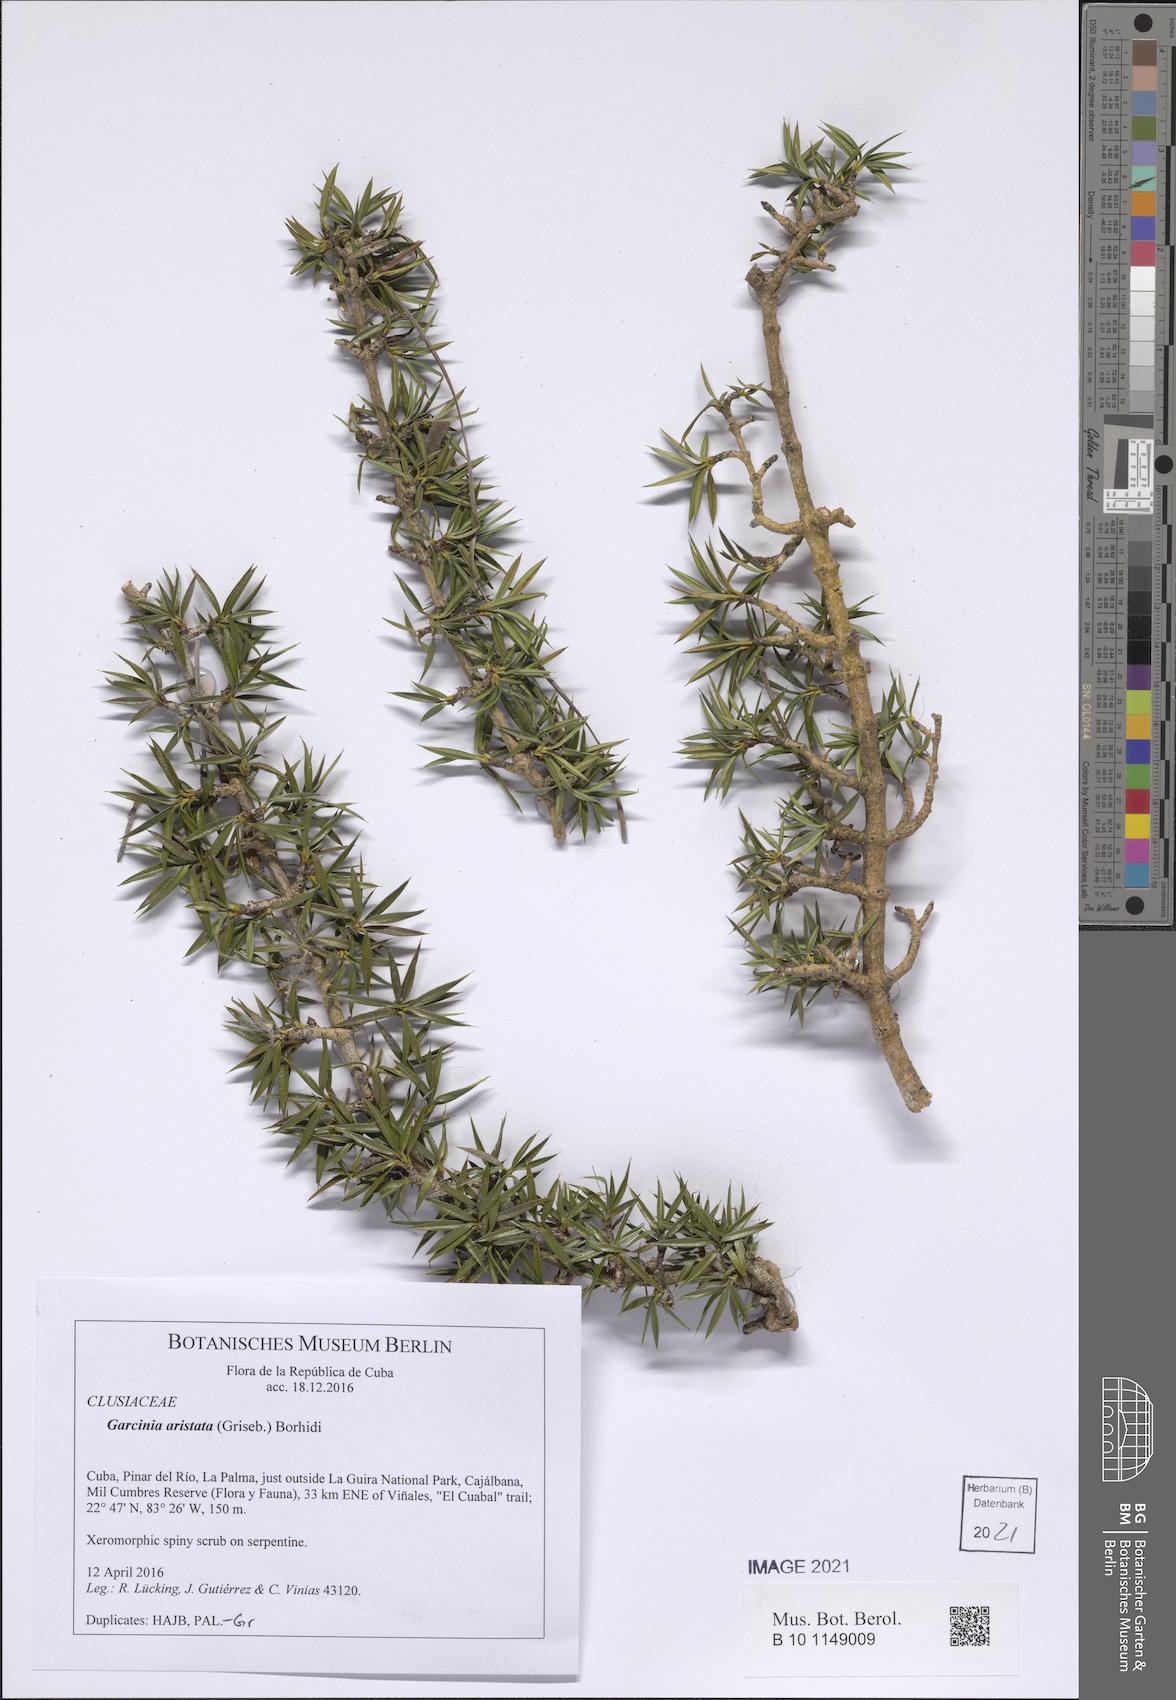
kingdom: Plantae
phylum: Tracheophyta
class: Magnoliopsida
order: Malpighiales
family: Clusiaceae
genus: Garcinia
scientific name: Garcinia ruscifolia
